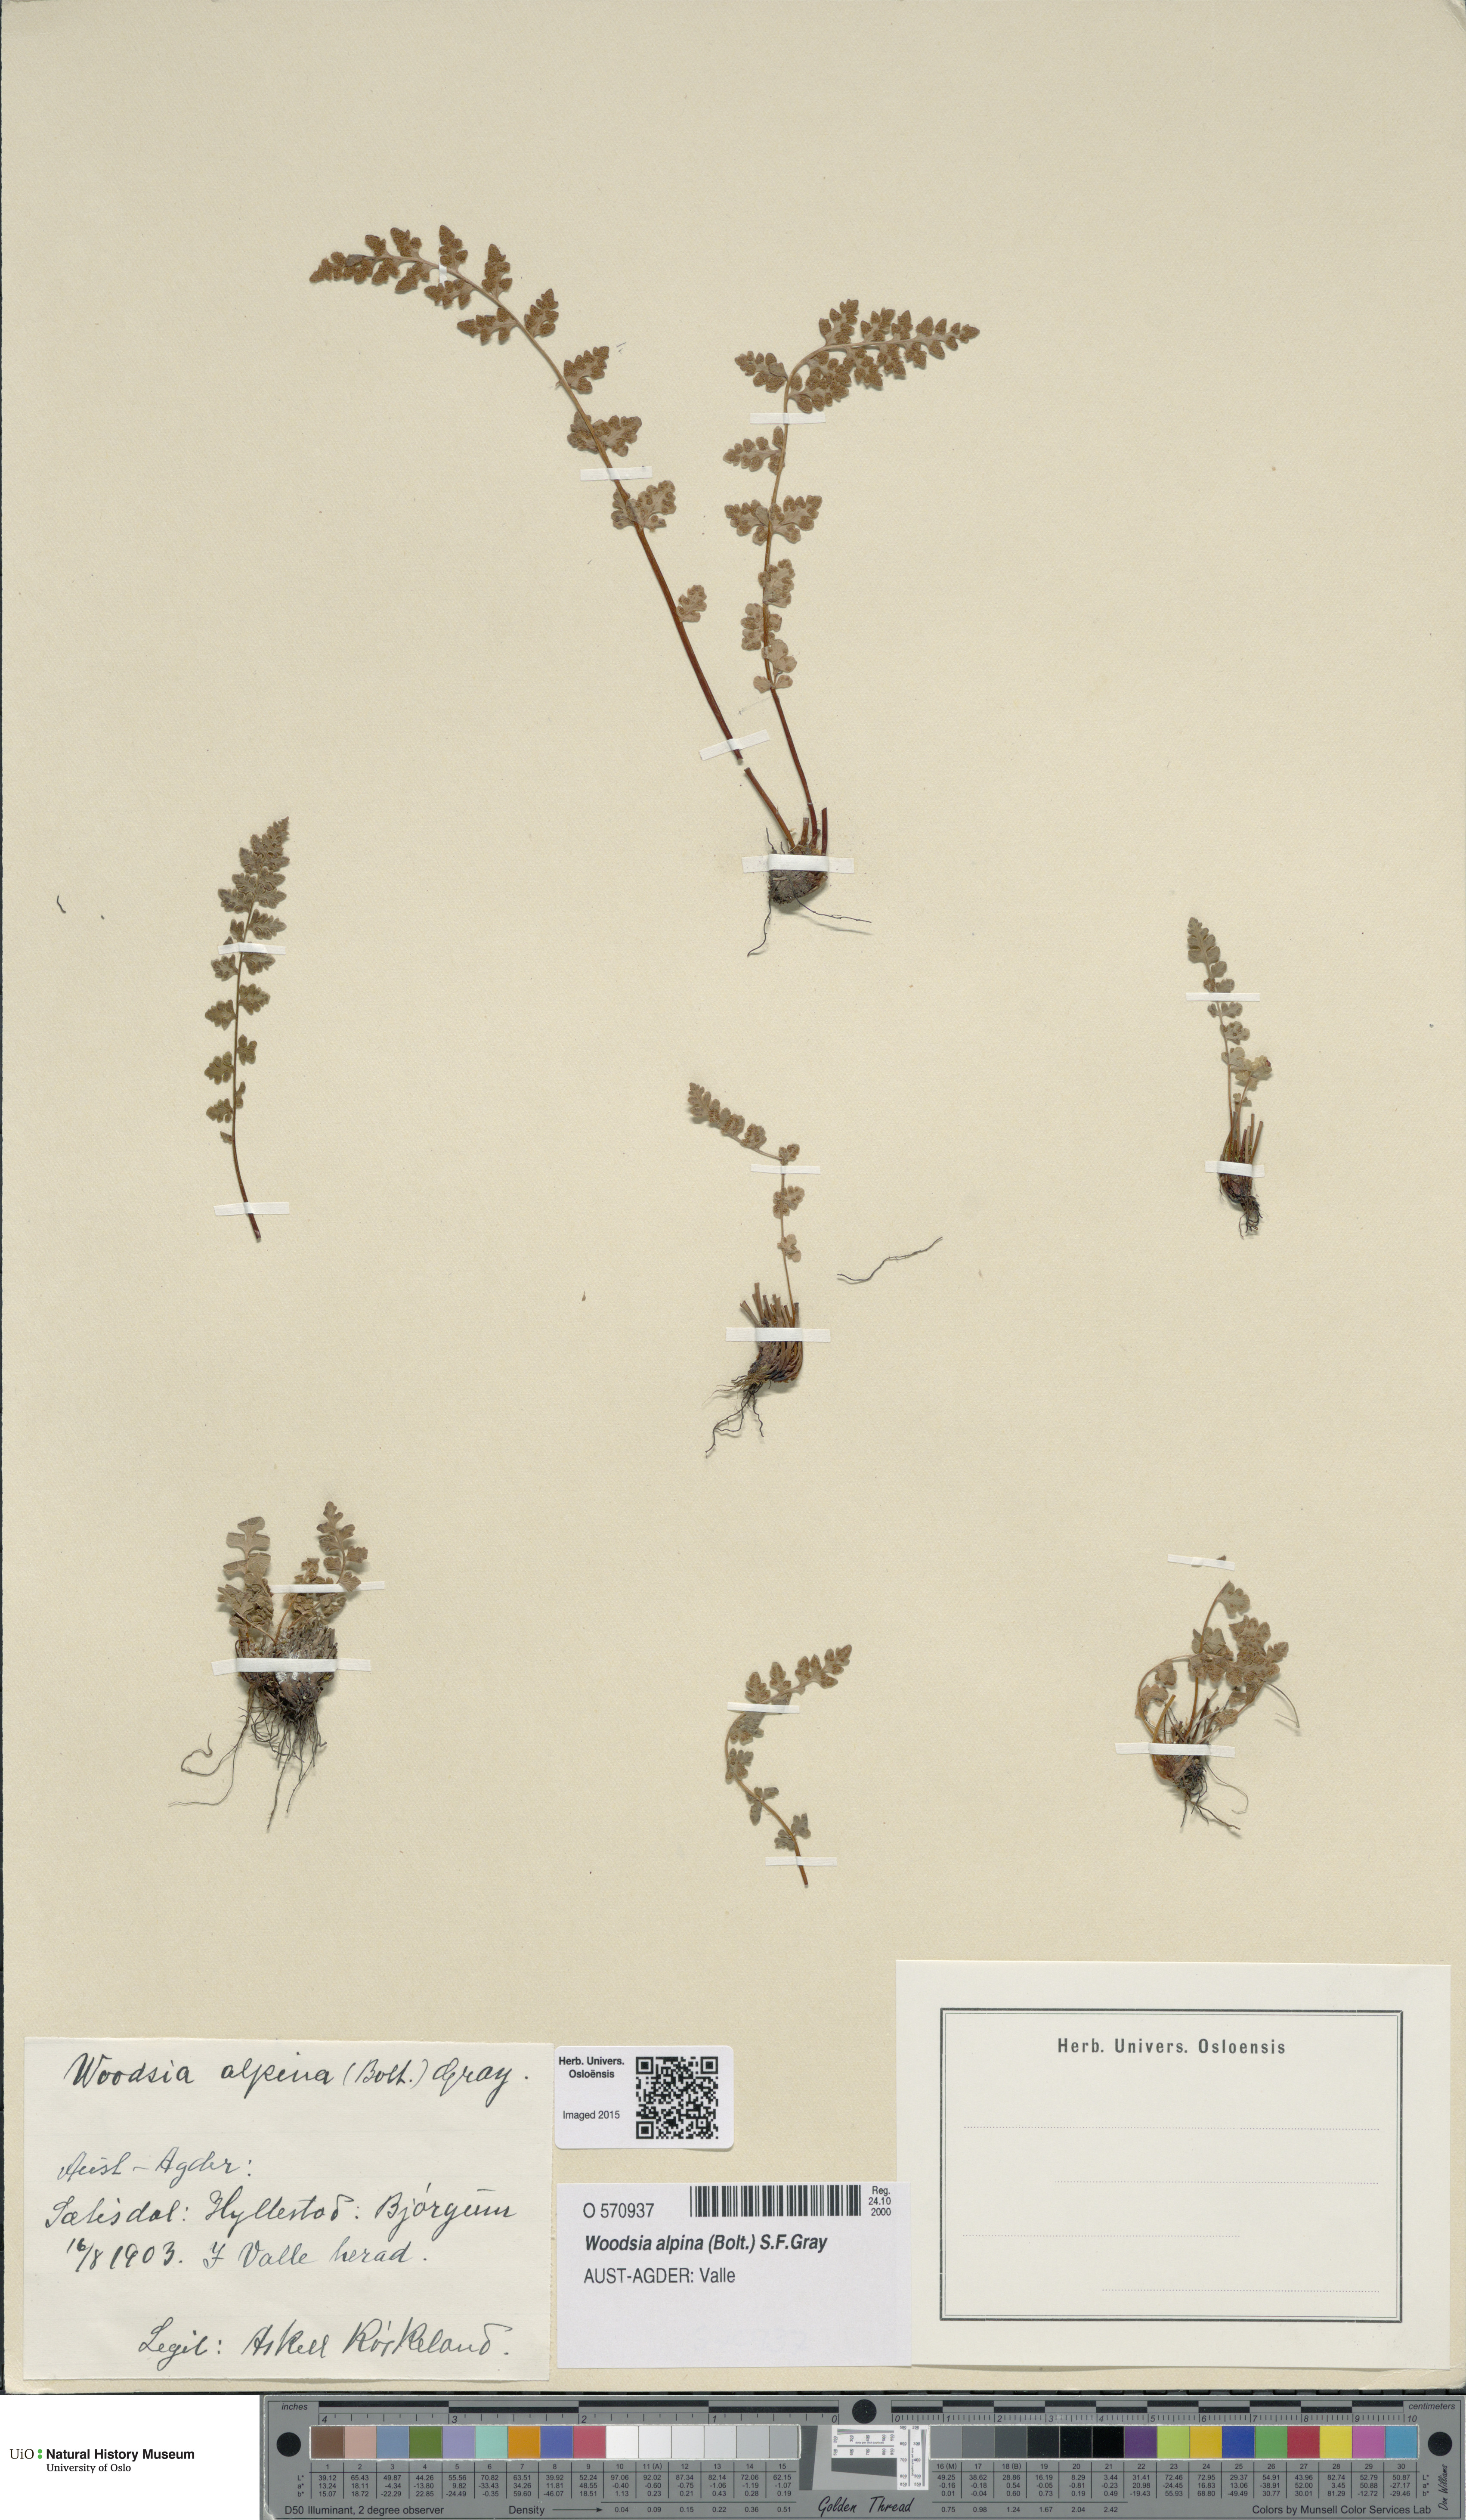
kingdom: Plantae
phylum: Tracheophyta
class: Polypodiopsida
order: Polypodiales
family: Woodsiaceae
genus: Woodsia
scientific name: Woodsia alpina
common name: Alpine woodsia
